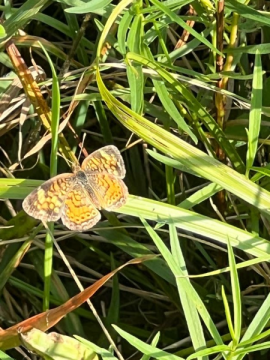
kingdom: Animalia
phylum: Arthropoda
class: Insecta
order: Lepidoptera
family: Nymphalidae
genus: Phyciodes
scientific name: Phyciodes
